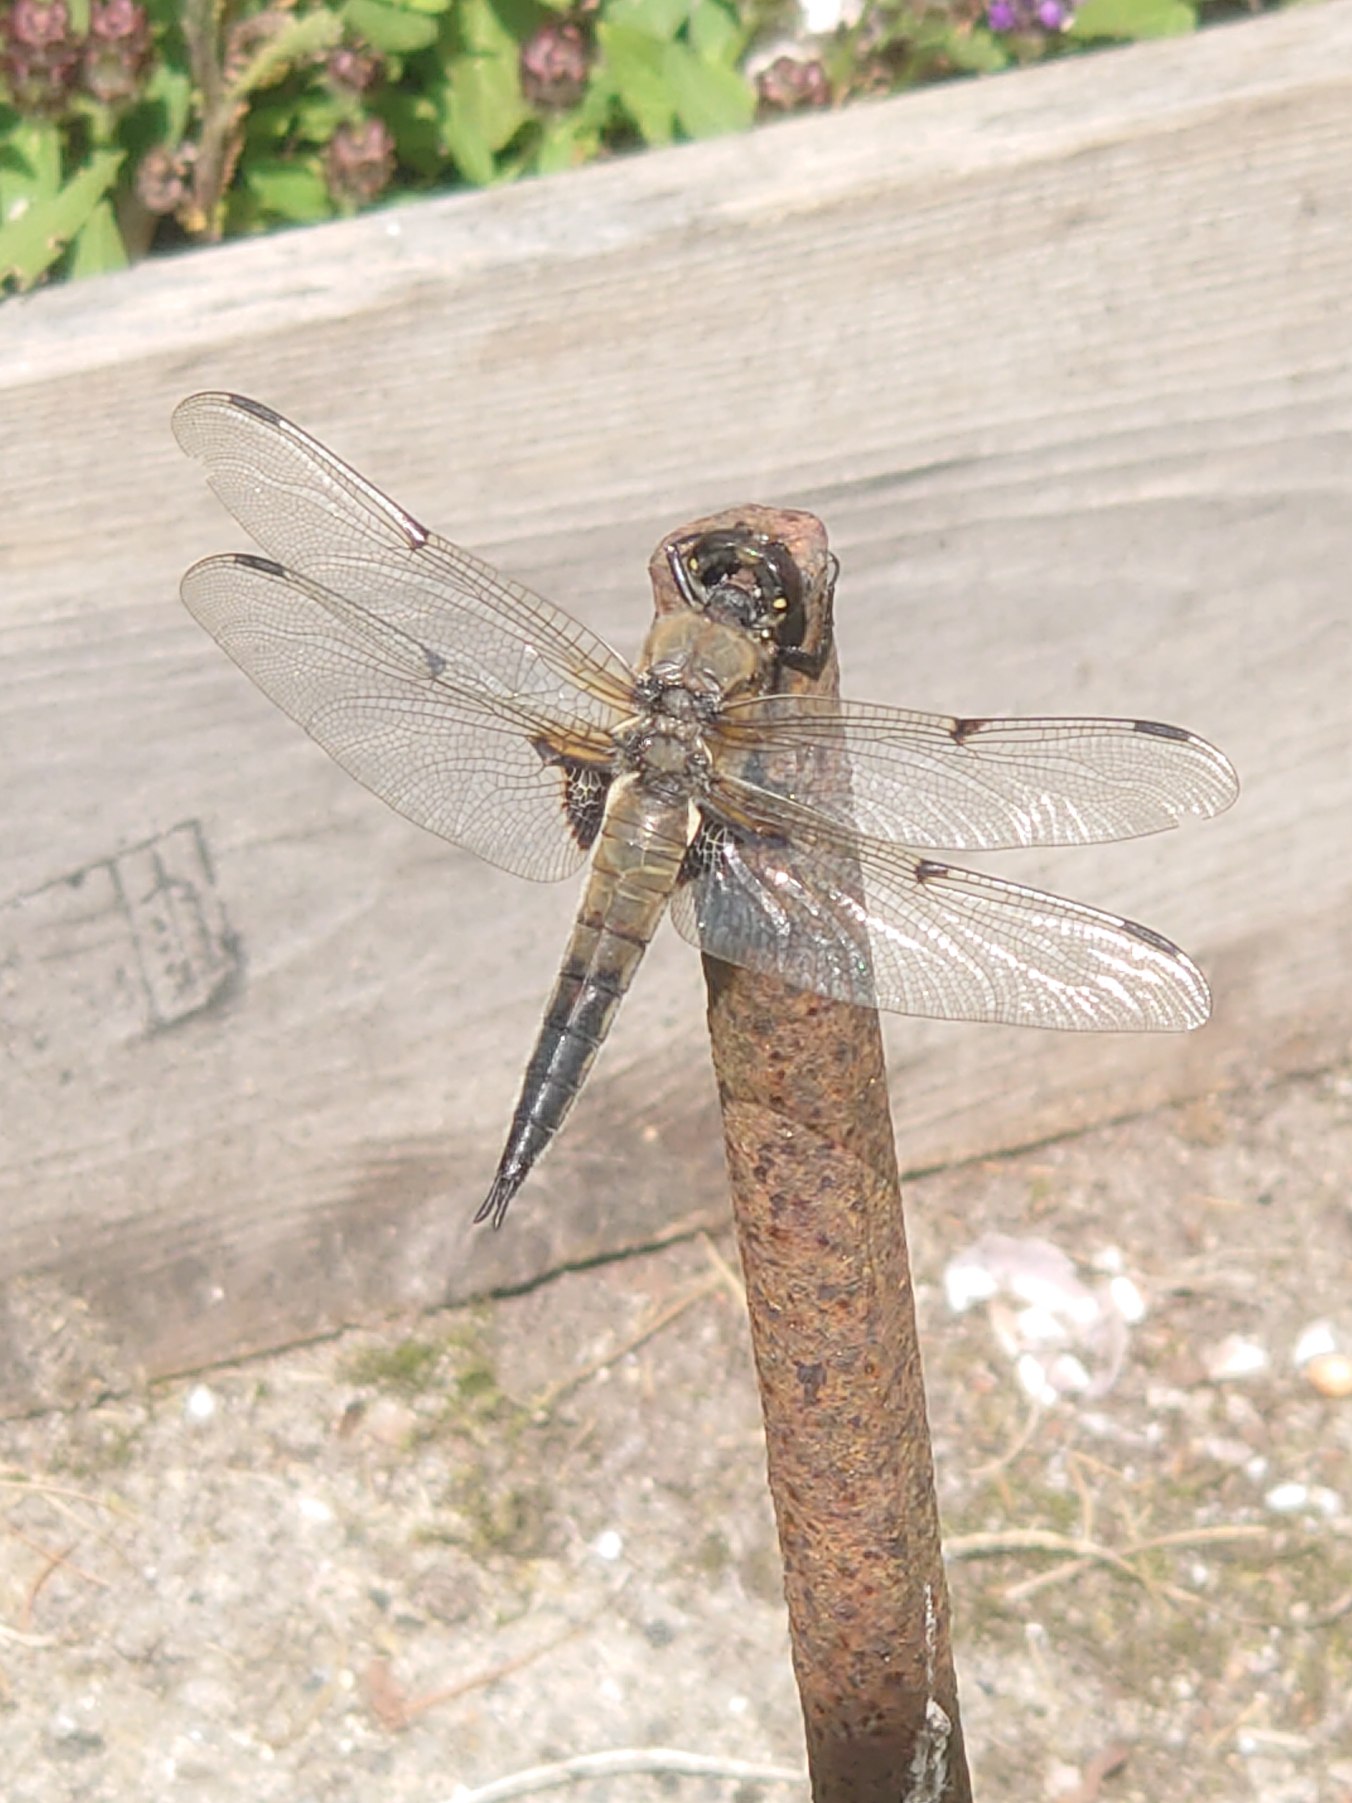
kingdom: Animalia
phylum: Arthropoda
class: Insecta
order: Odonata
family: Libellulidae
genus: Libellula
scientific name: Libellula quadrimaculata
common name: Fireplettet libel
